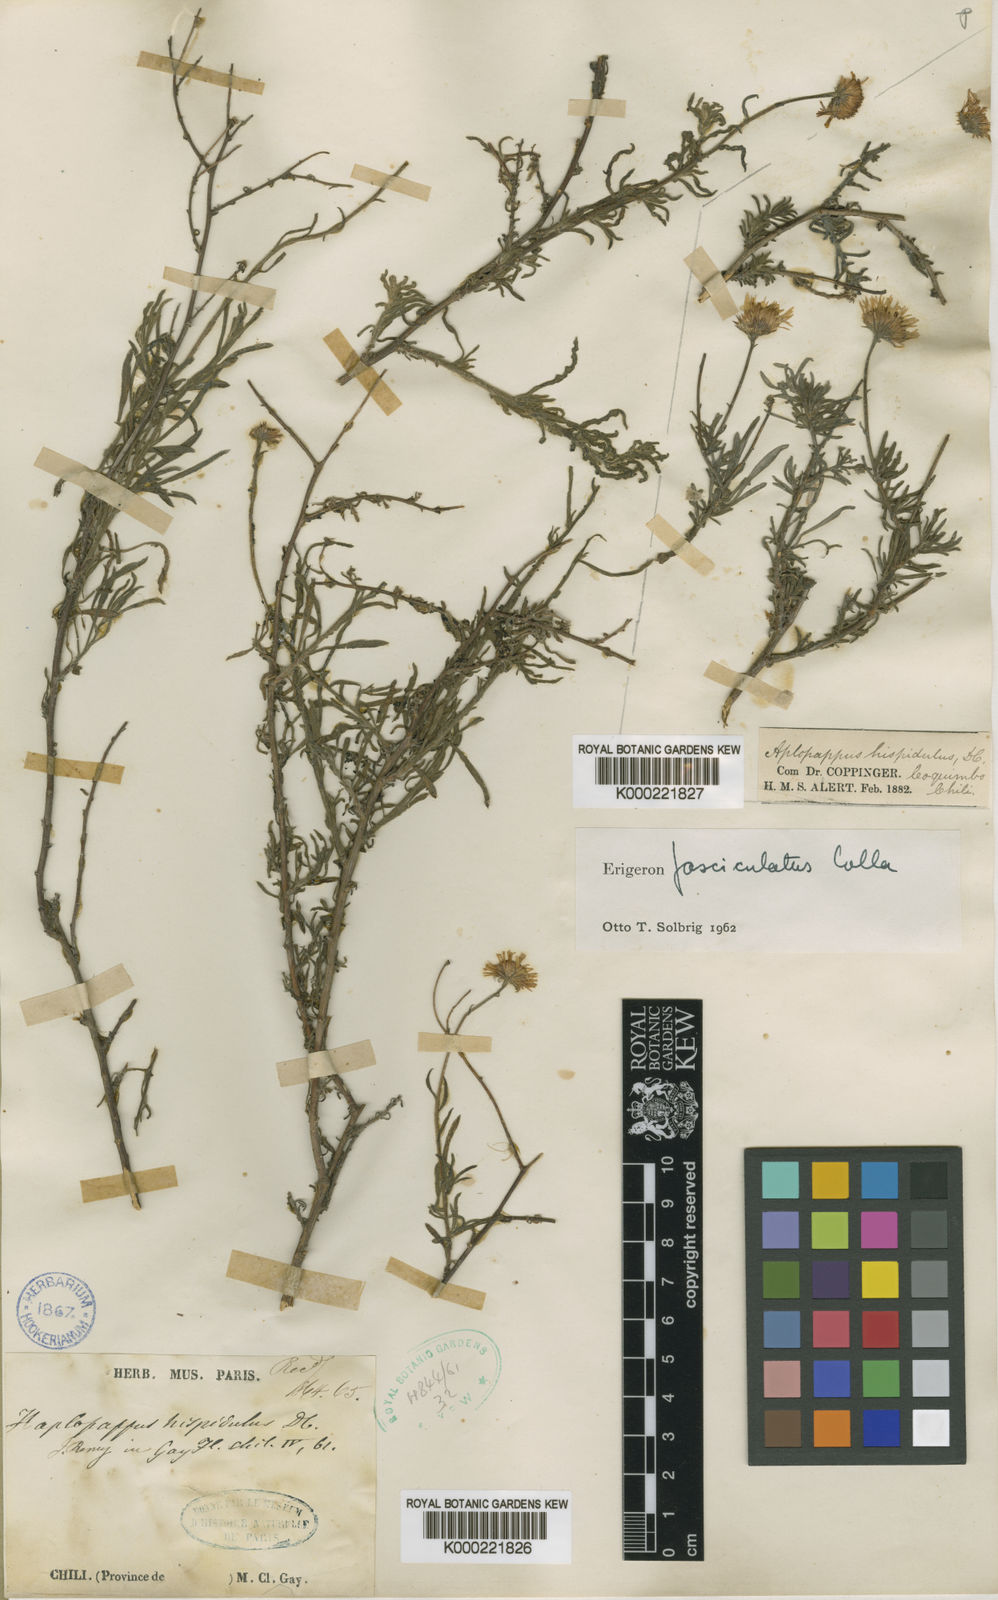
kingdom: Plantae
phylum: Tracheophyta
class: Magnoliopsida
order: Asterales
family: Asteraceae
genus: Erigeron
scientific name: Erigeron fasciculatus
